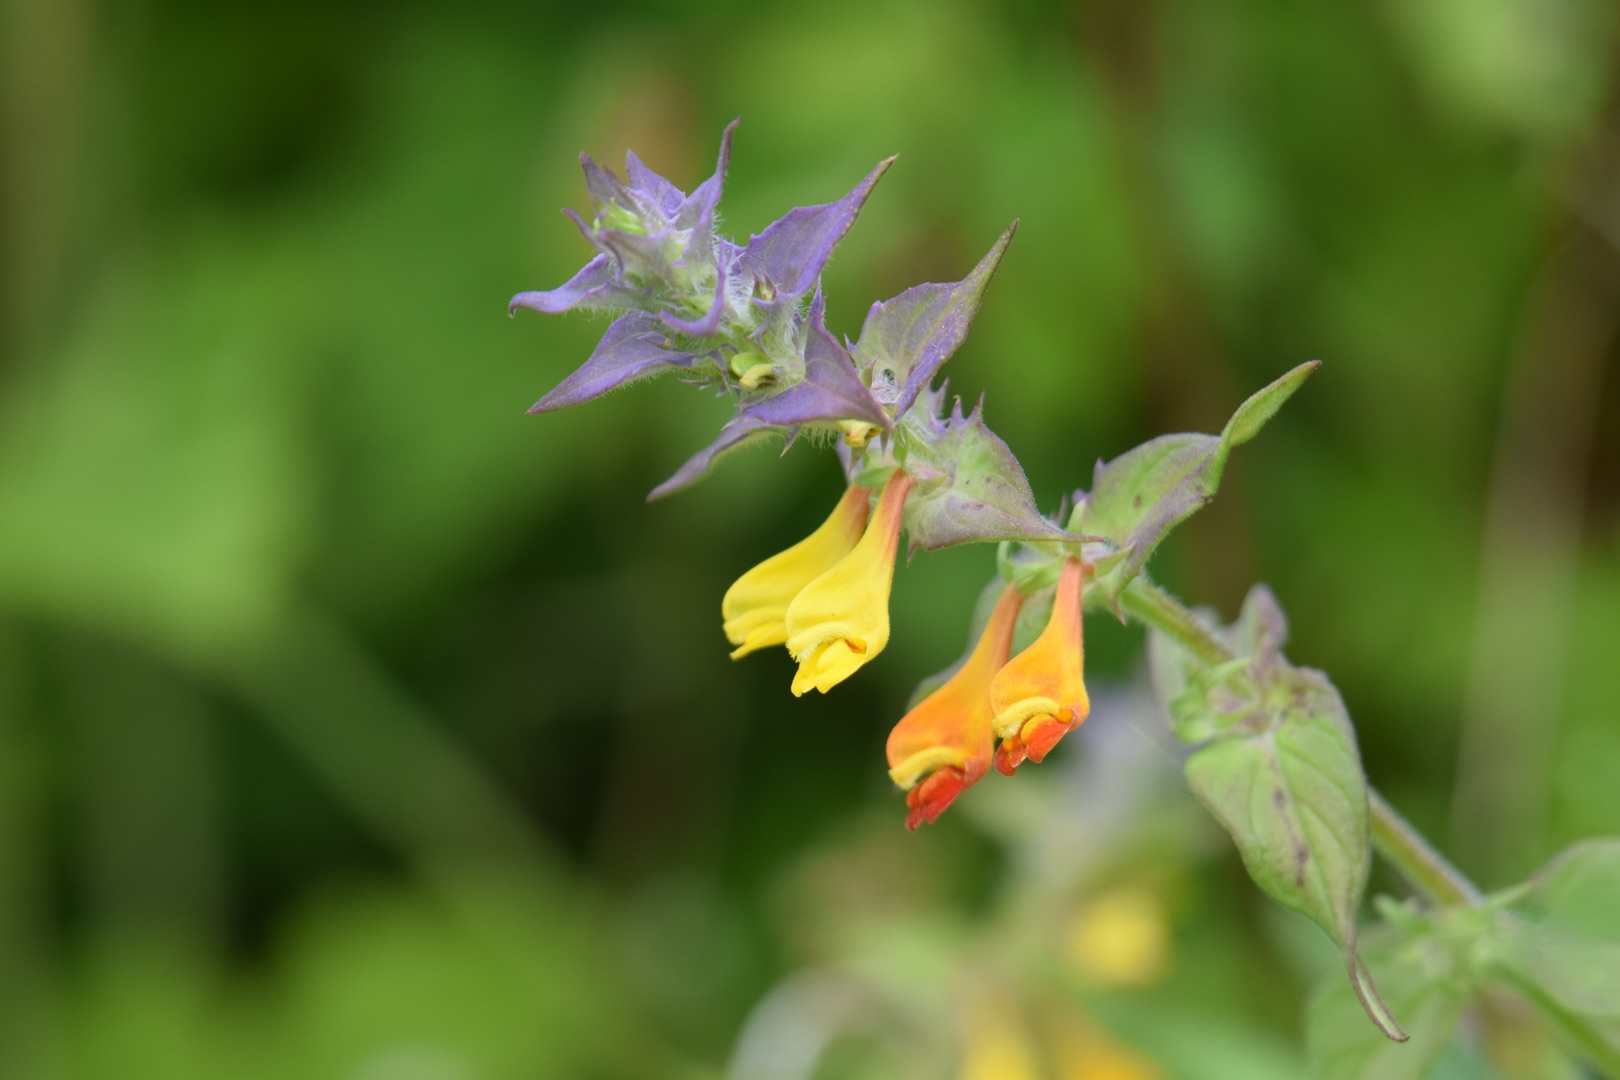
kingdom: Plantae
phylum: Tracheophyta
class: Magnoliopsida
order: Lamiales
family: Orobanchaceae
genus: Melampyrum
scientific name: Melampyrum nemorosum
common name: Blåtoppet kohvede
